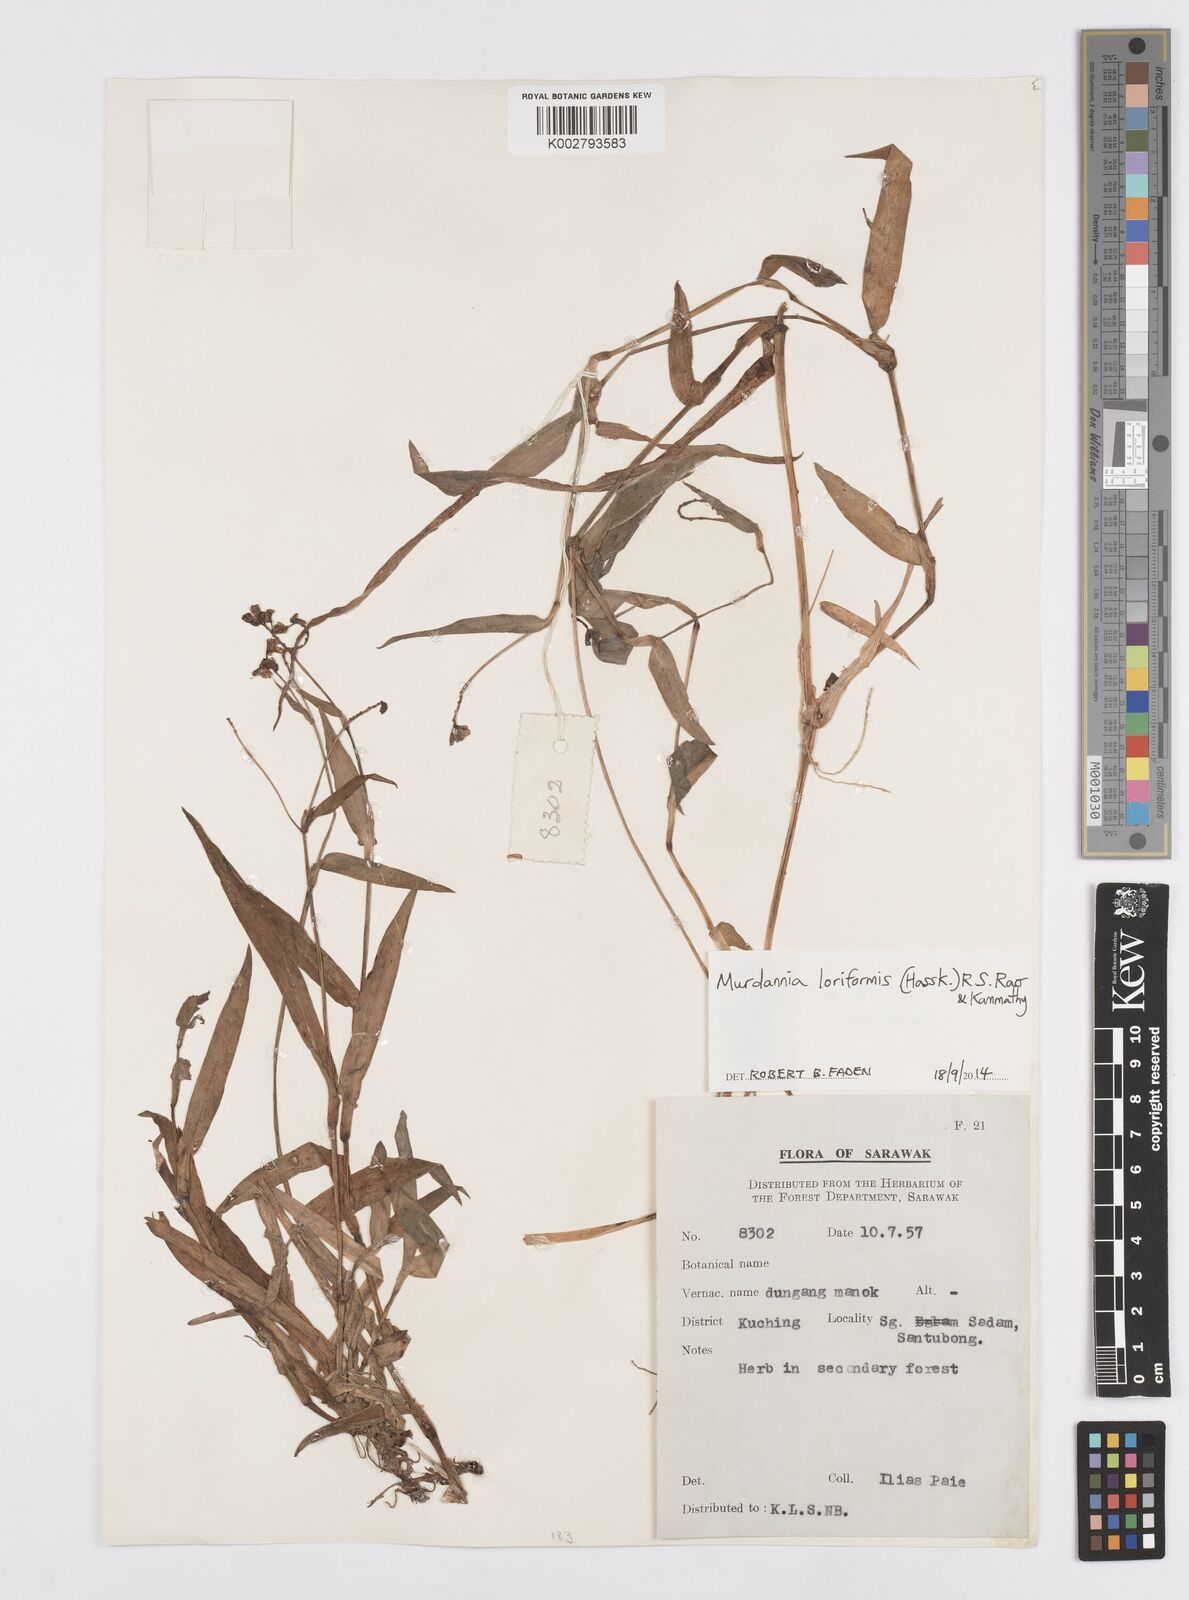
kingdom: Plantae
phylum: Tracheophyta
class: Liliopsida
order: Commelinales
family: Commelinaceae
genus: Murdannia
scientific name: Murdannia loriformis
